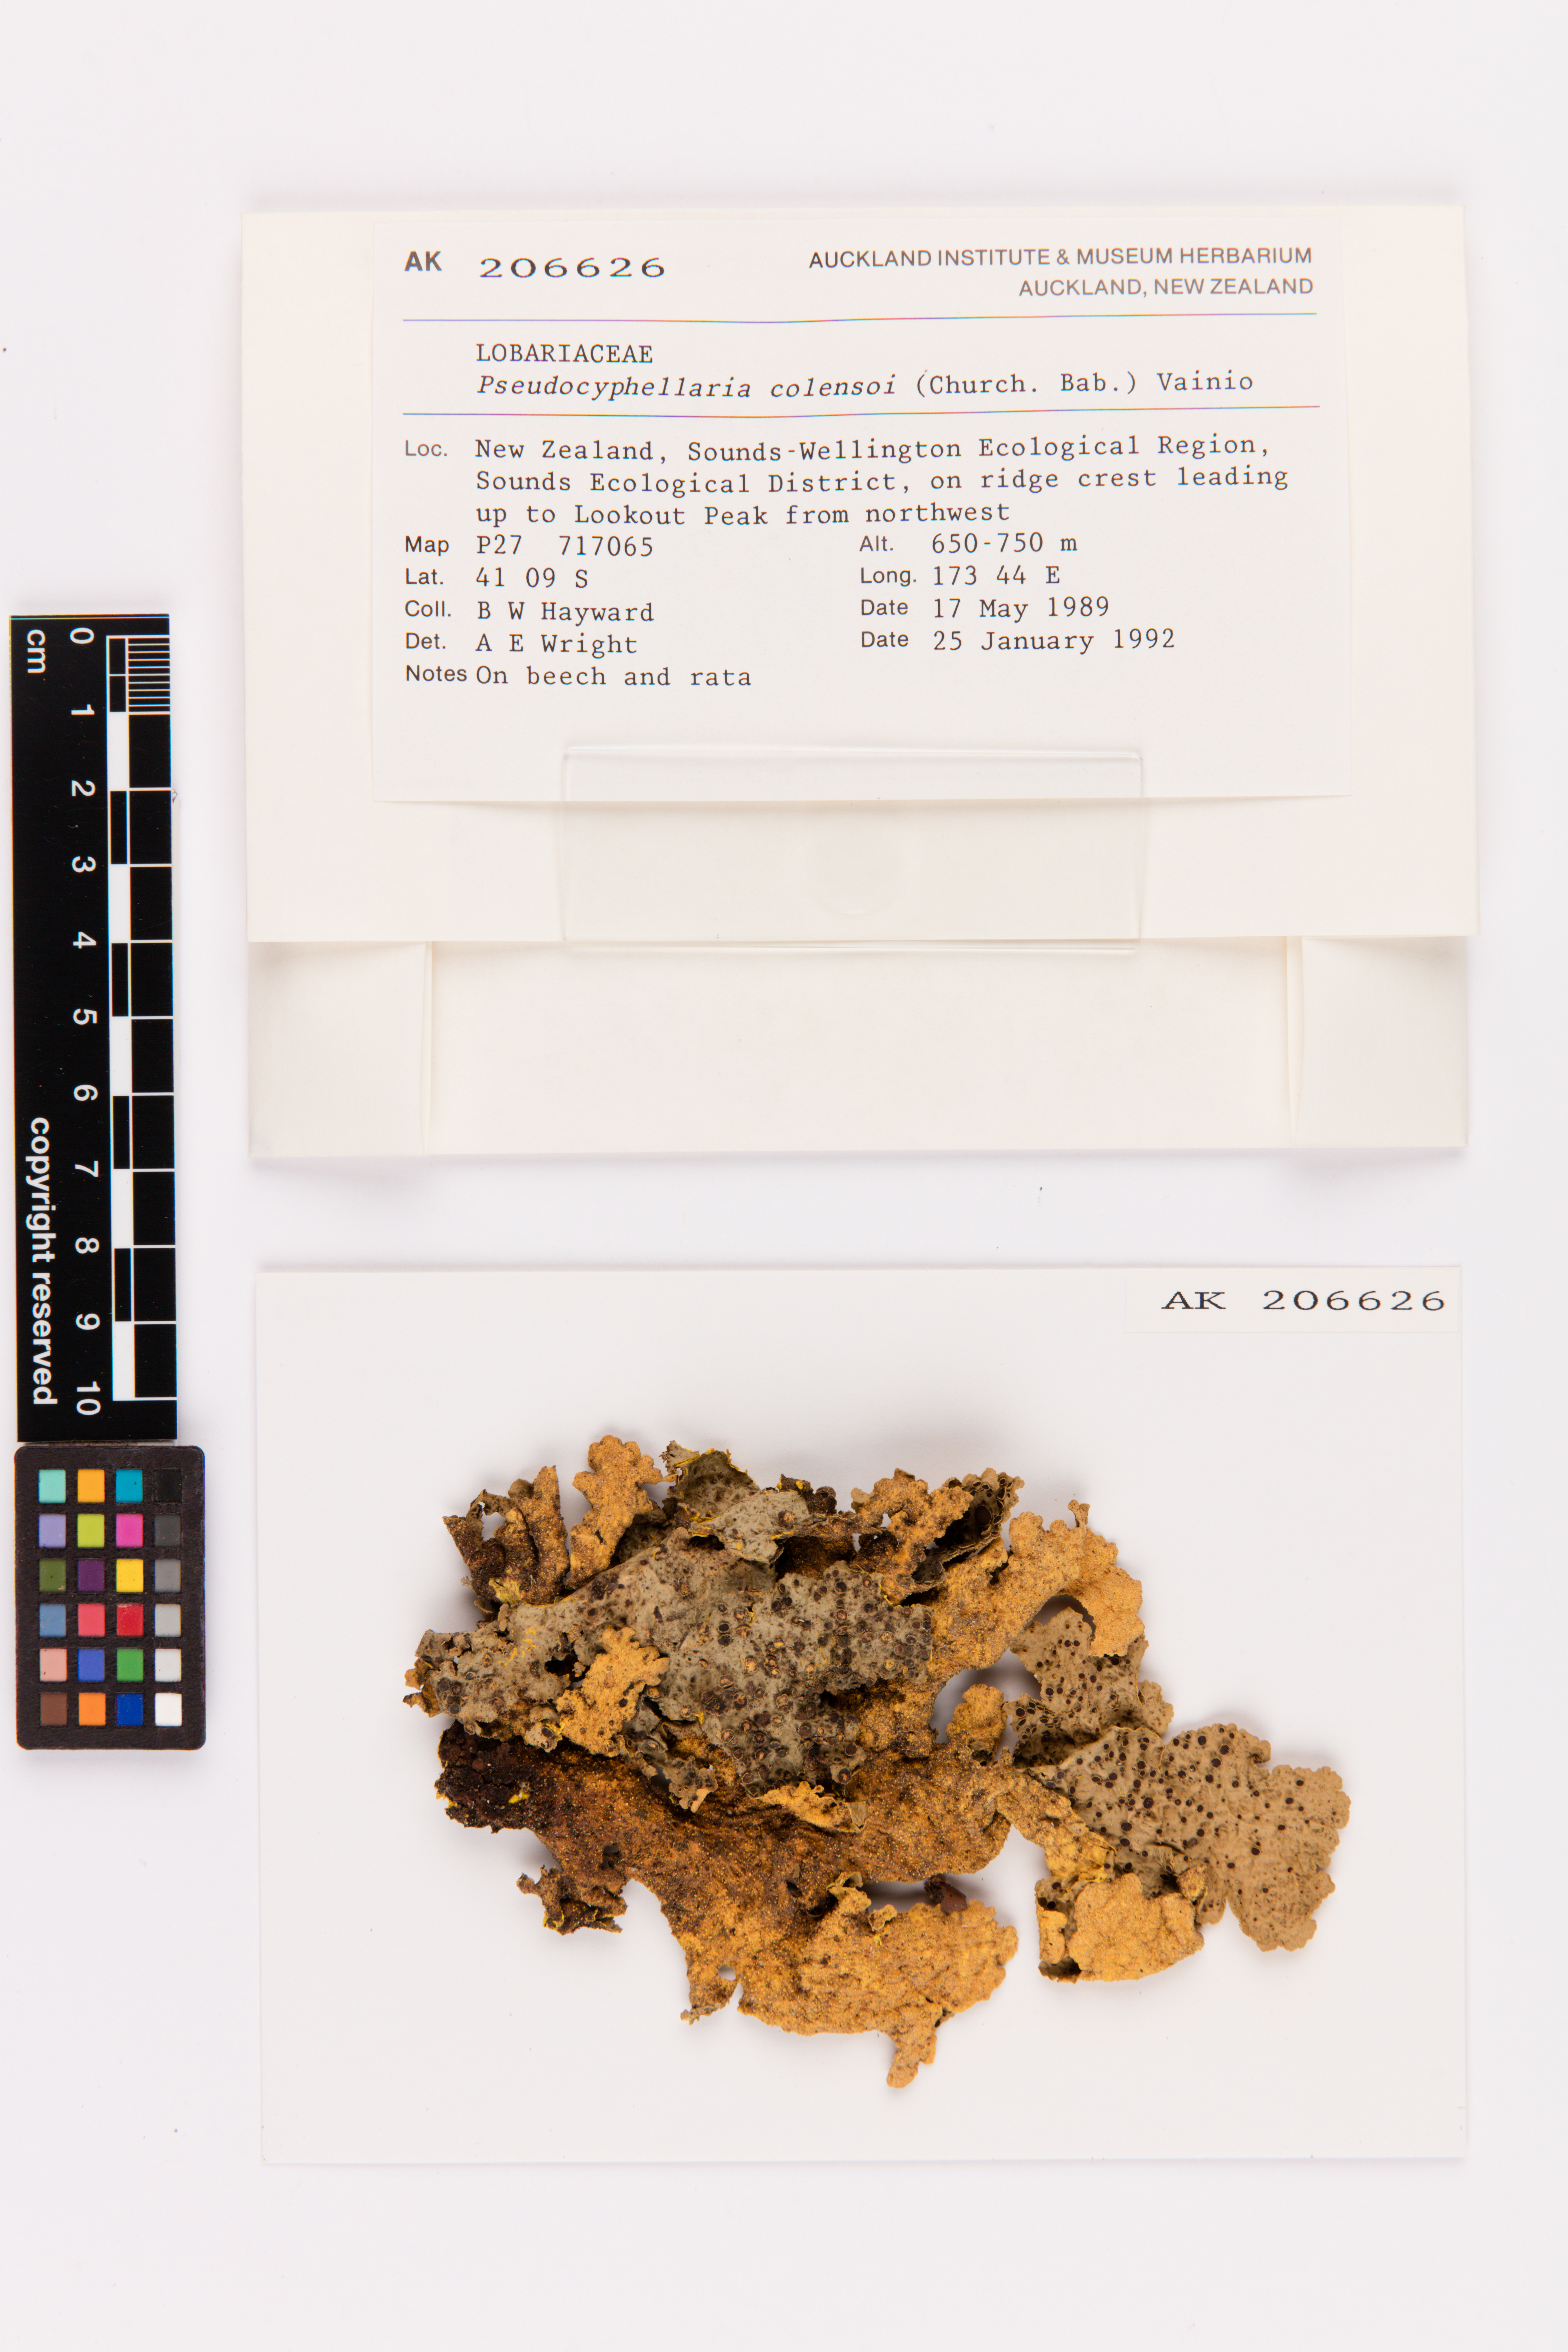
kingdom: Fungi
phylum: Ascomycota
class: Lecanoromycetes
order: Peltigerales
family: Lobariaceae
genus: Yarrumia
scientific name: Yarrumia colensoi
